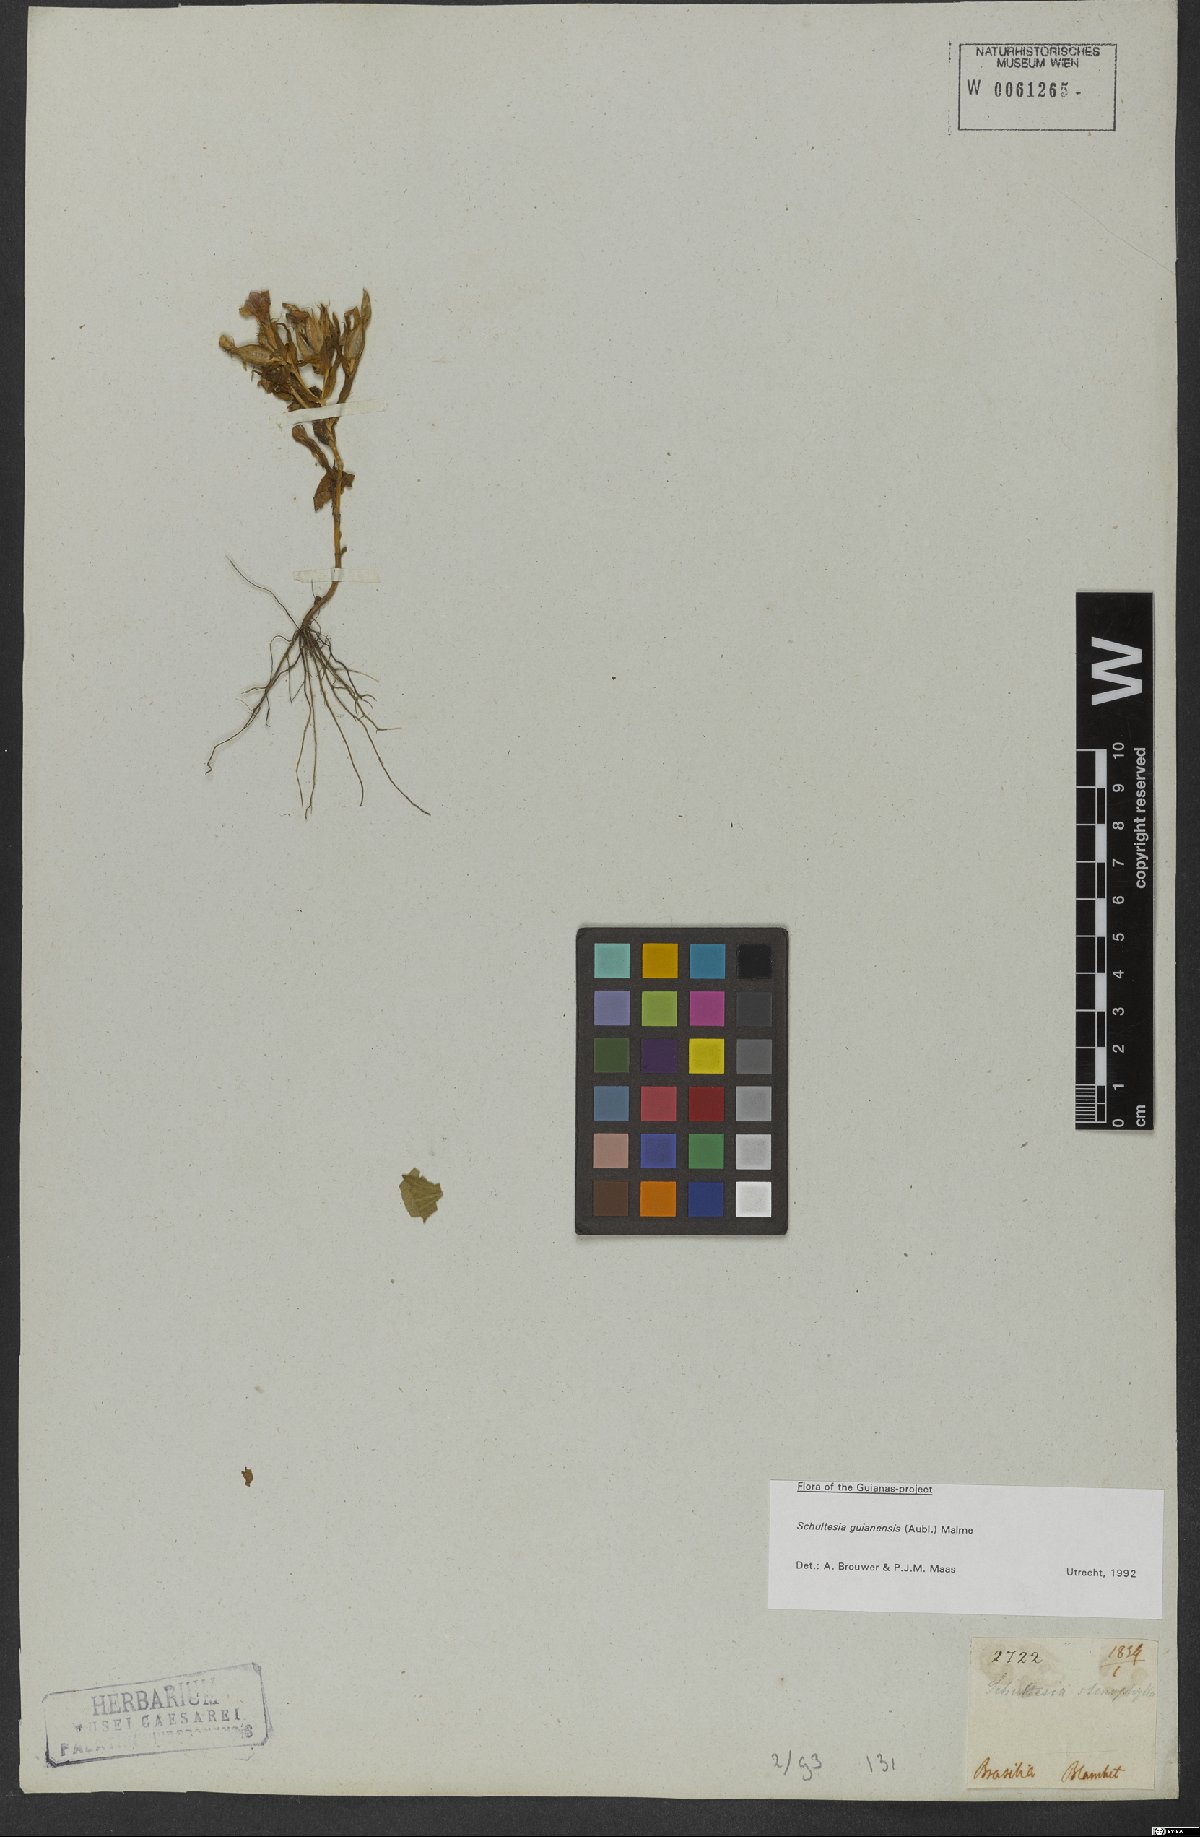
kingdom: Plantae
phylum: Tracheophyta
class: Magnoliopsida
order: Gentianales
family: Gentianaceae
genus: Schultesia
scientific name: Schultesia guianensis
